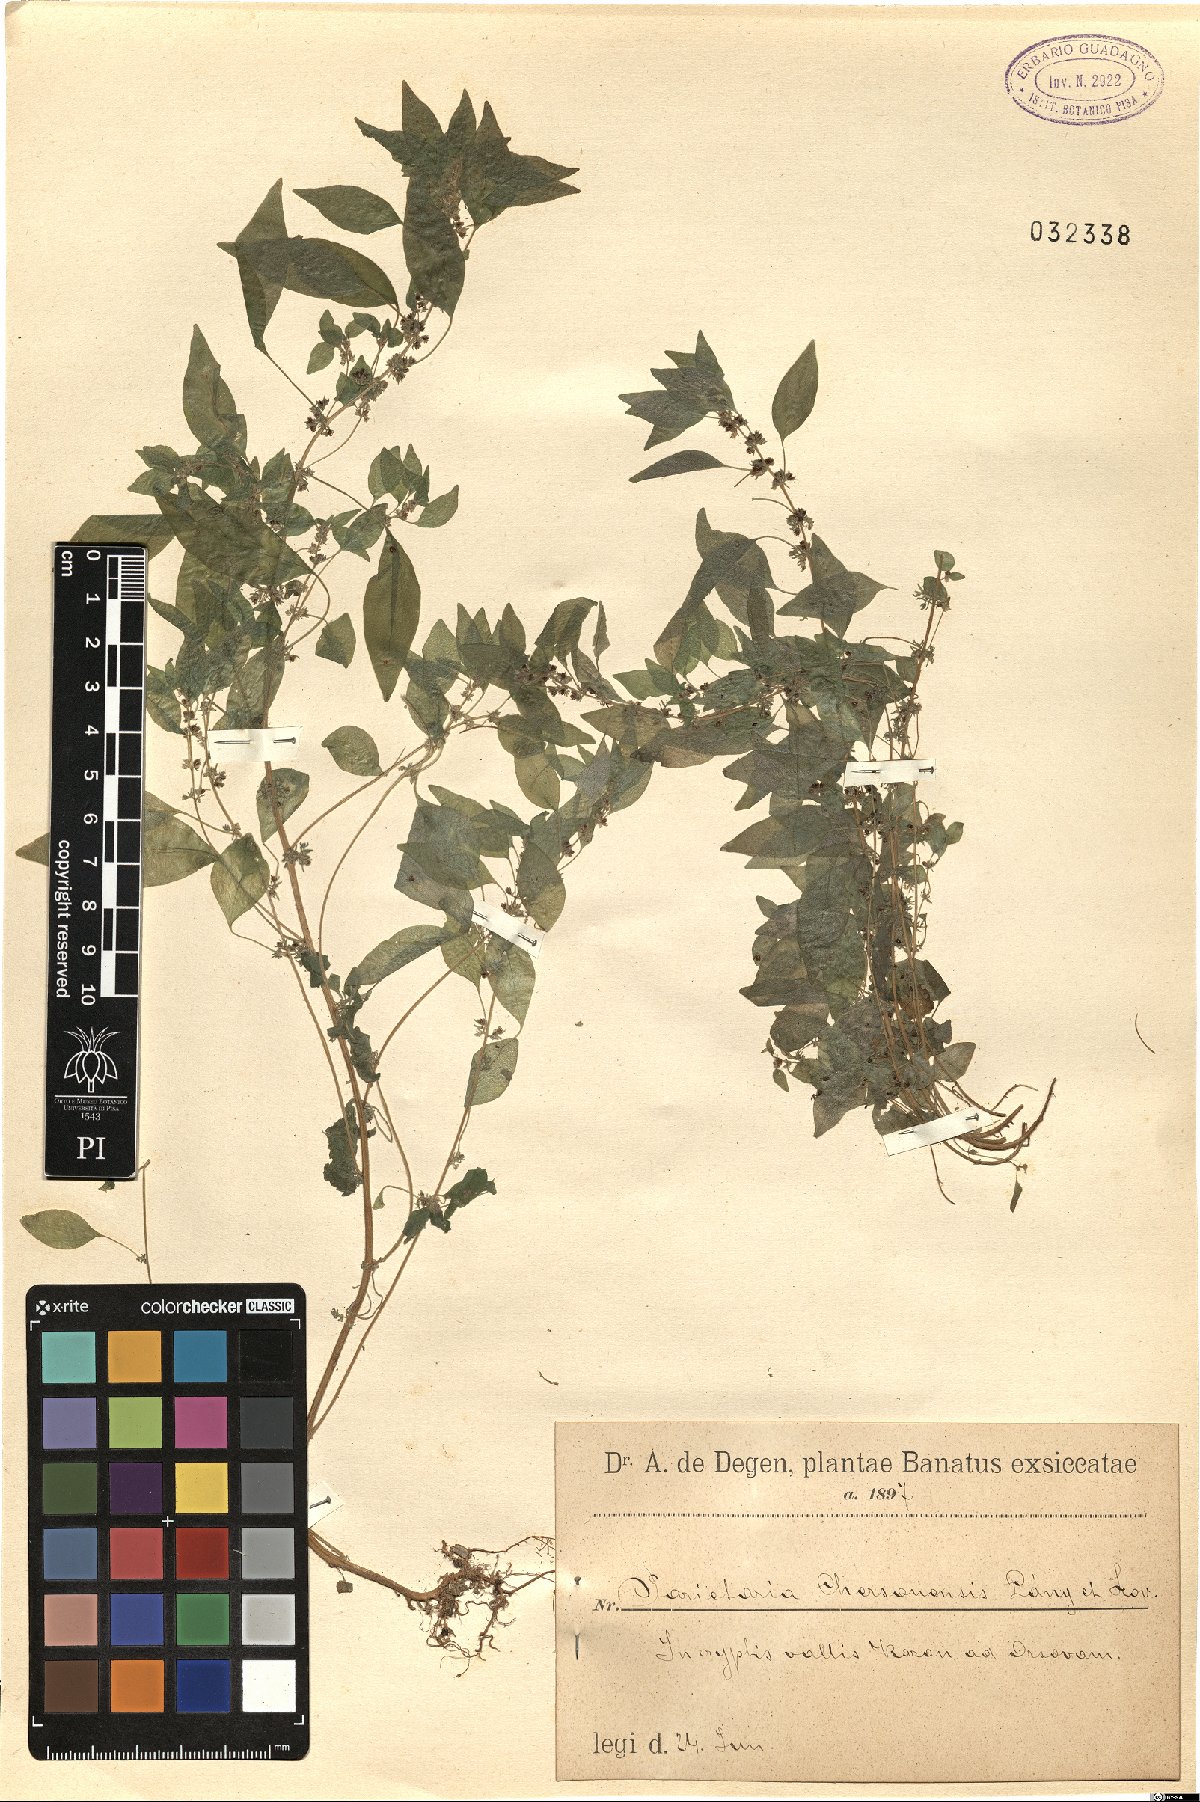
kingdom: Plantae
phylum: Tracheophyta
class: Magnoliopsida
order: Rosales
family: Urticaceae
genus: Parietaria
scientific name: Parietaria lusitanica
